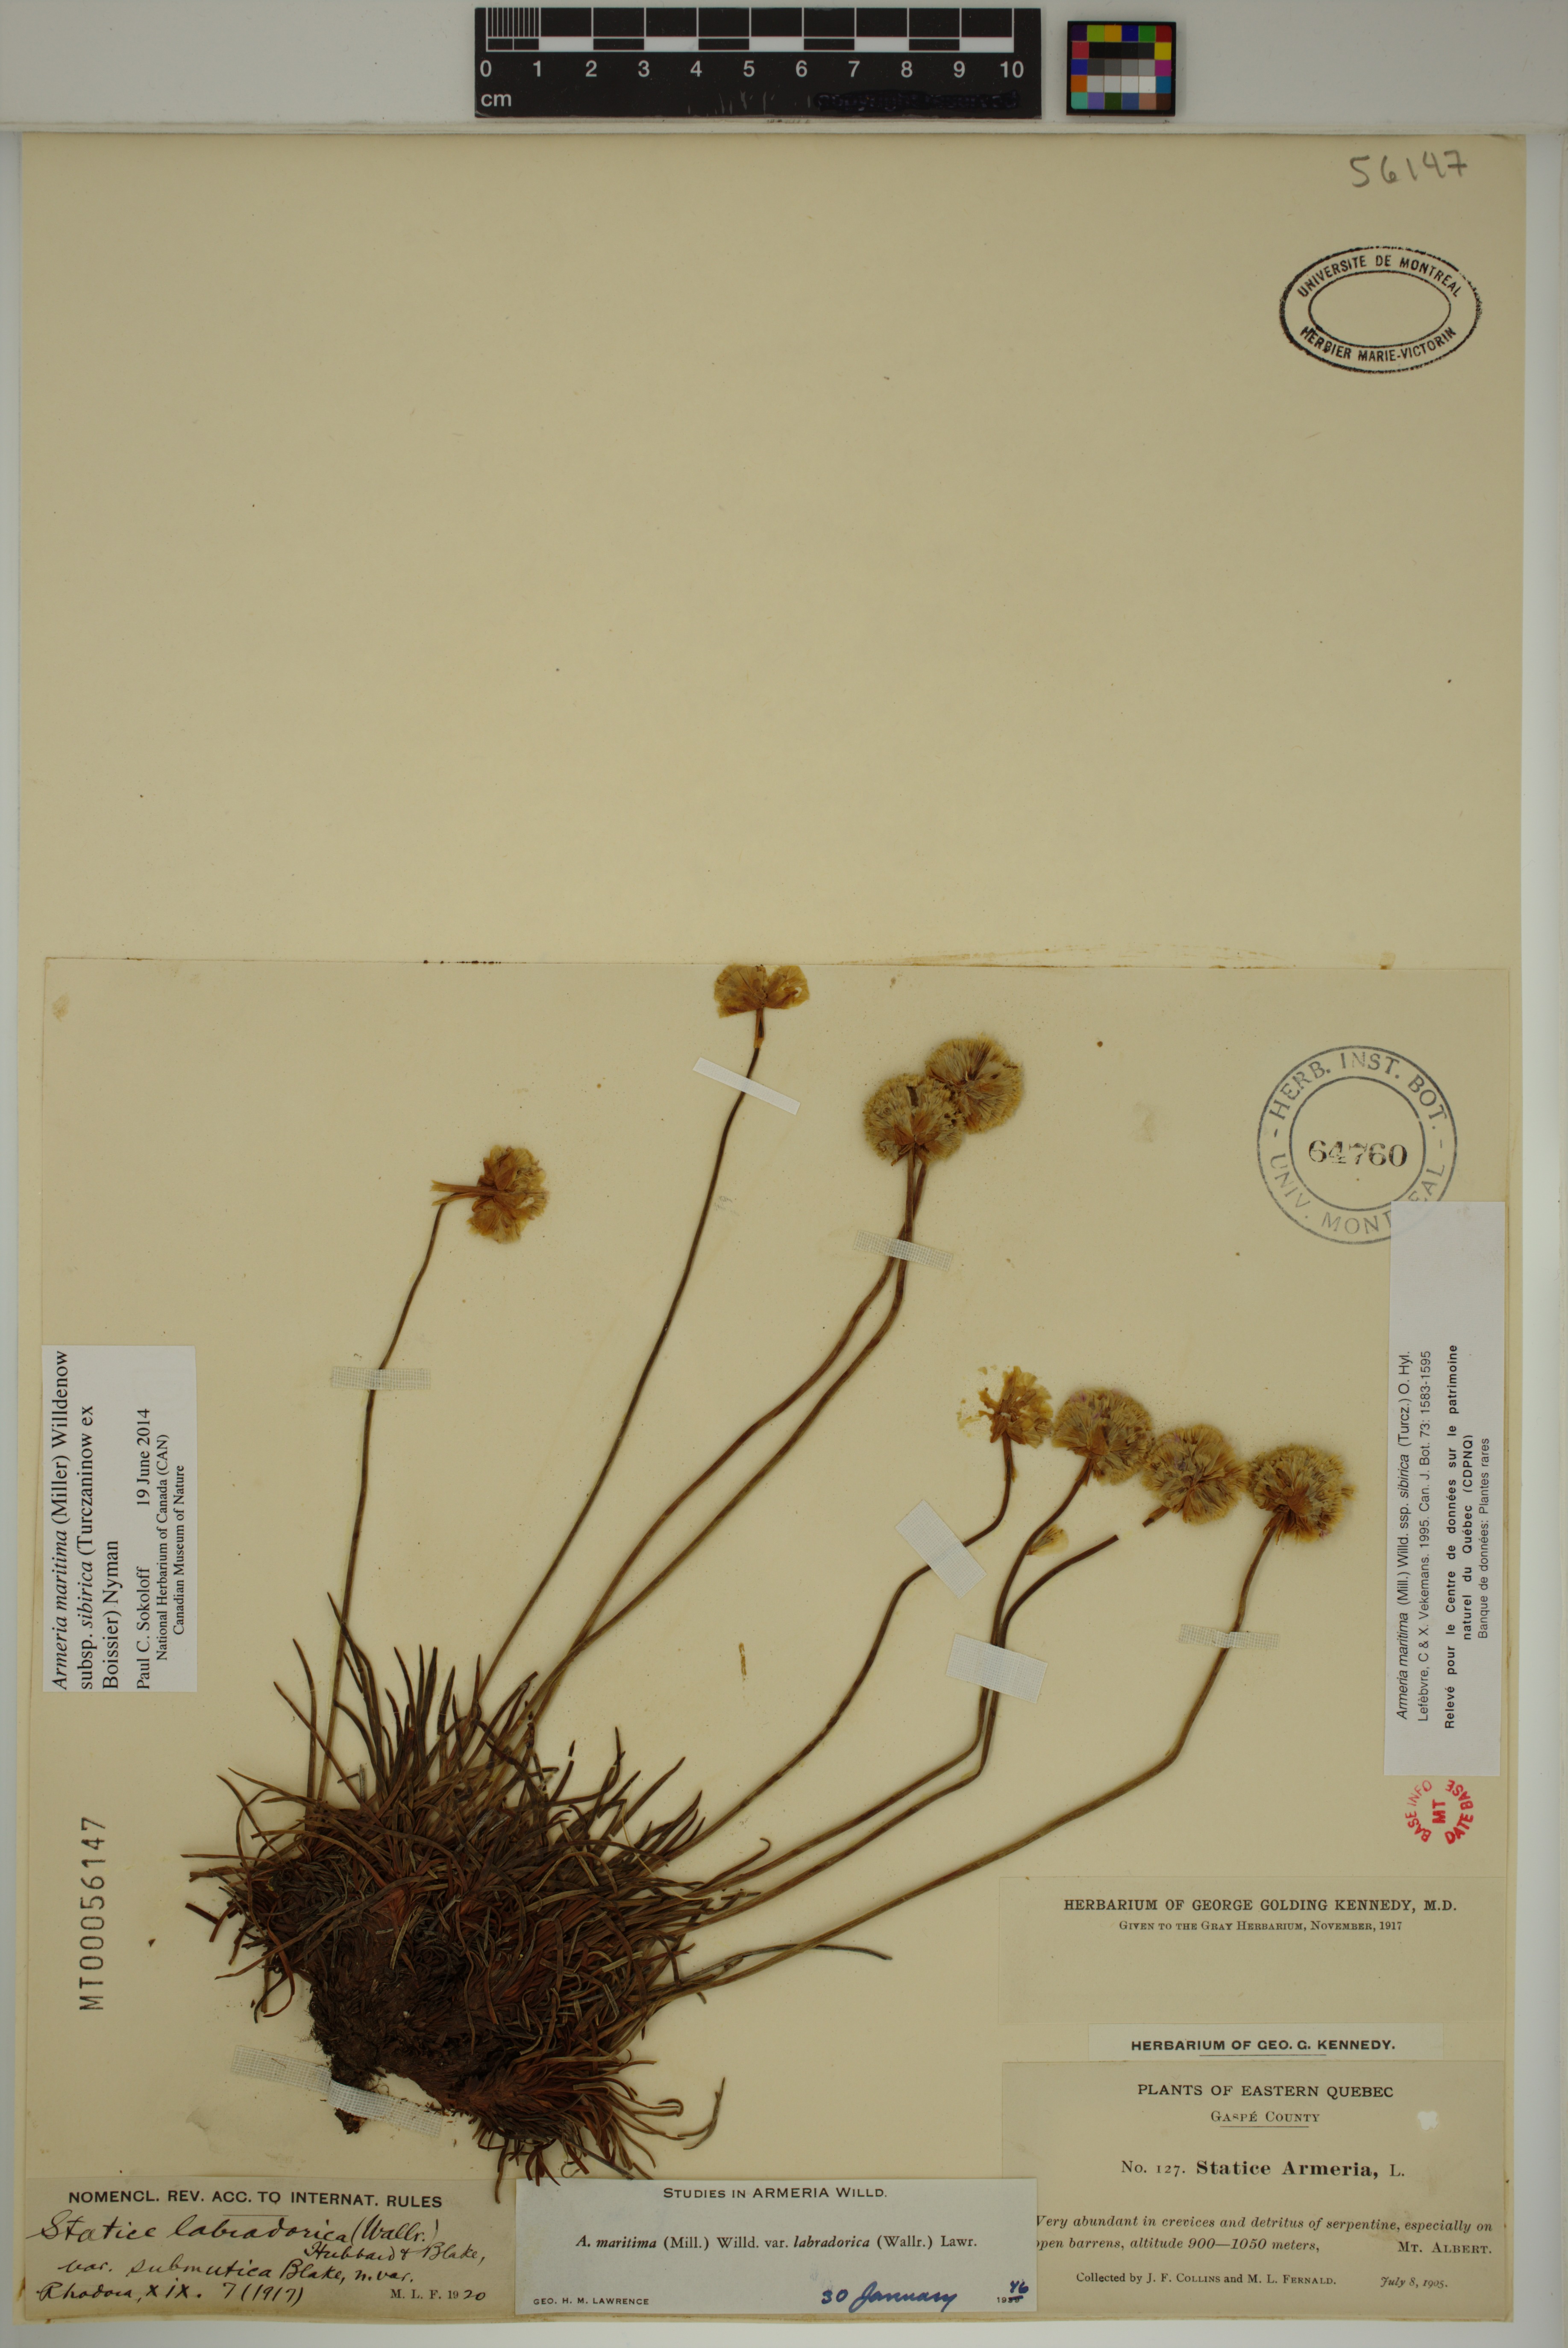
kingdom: Plantae
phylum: Tracheophyta
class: Magnoliopsida
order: Caryophyllales
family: Plumbaginaceae
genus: Armeria
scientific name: Armeria maritima
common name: Thrift
